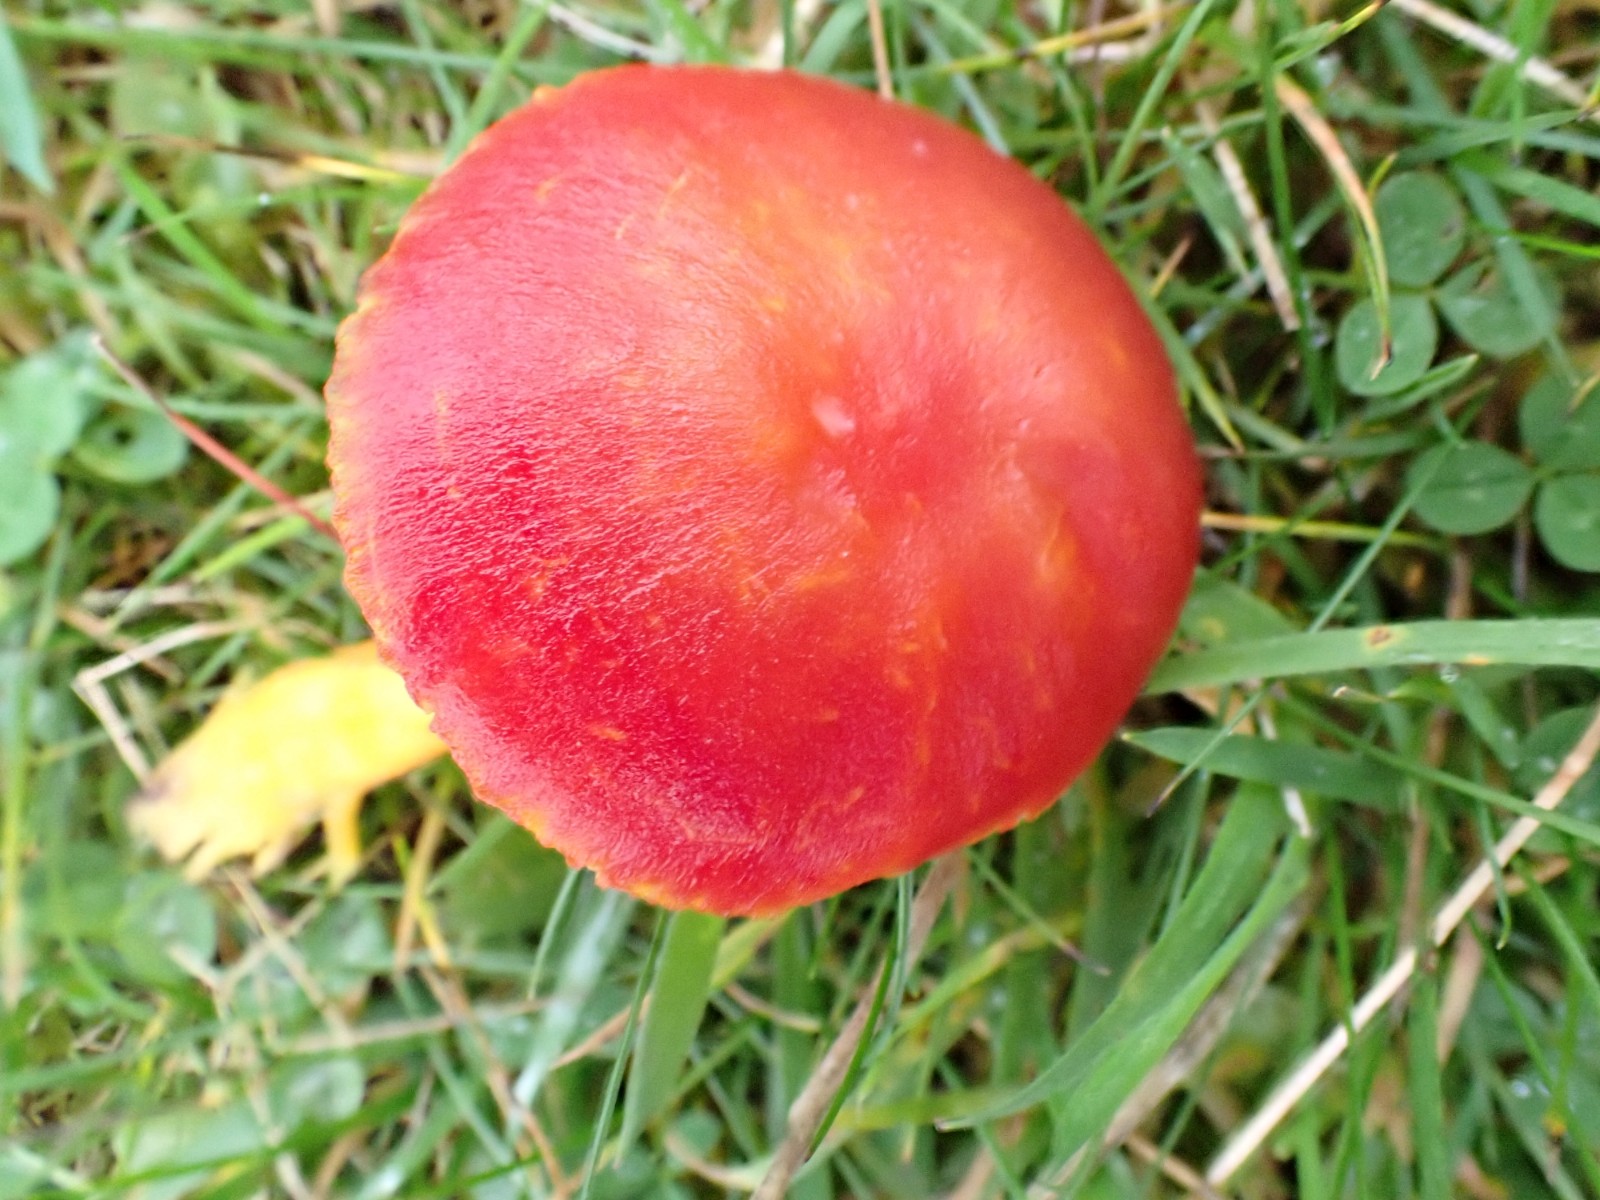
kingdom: Fungi
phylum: Basidiomycota
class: Agaricomycetes
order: Agaricales
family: Hygrophoraceae
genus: Hygrocybe
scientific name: Hygrocybe coccinea
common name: cinnober-vokshat
